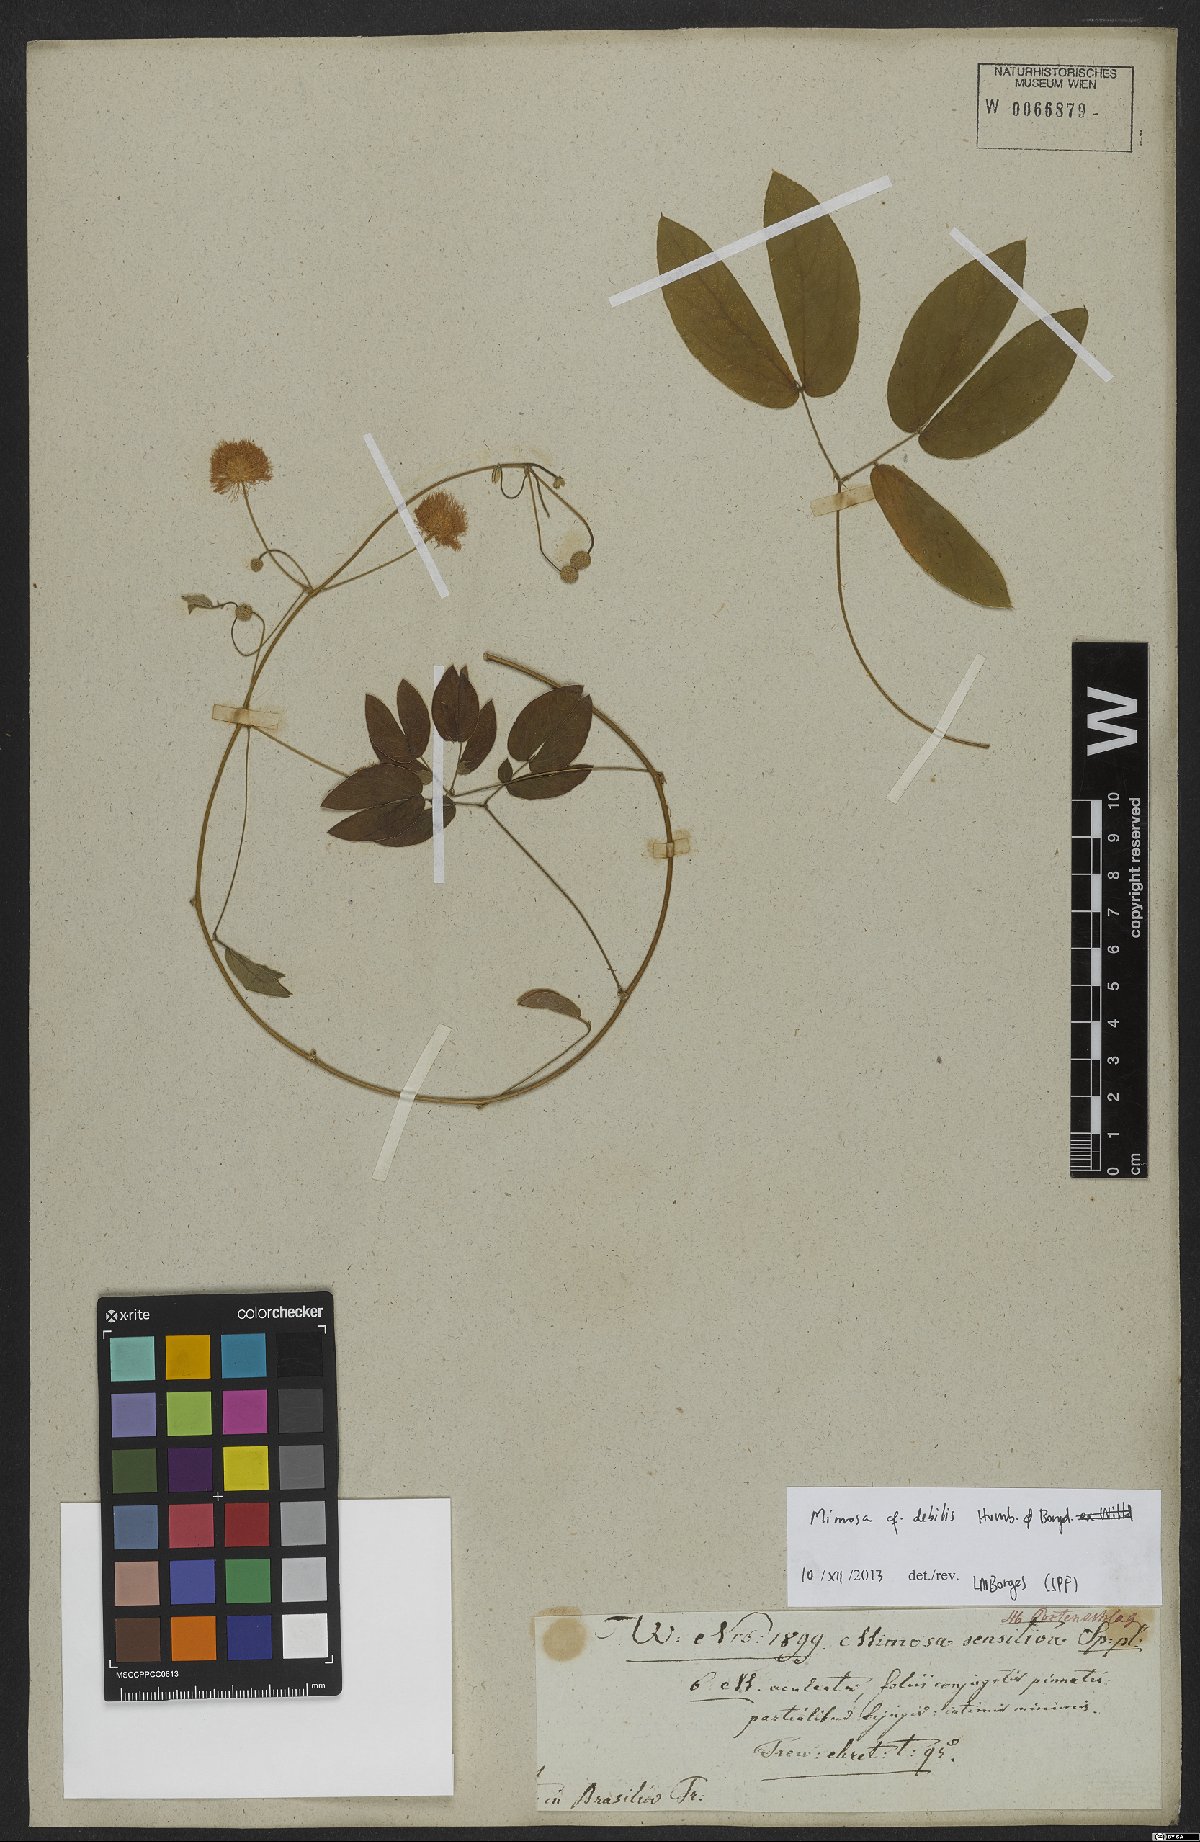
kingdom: Plantae
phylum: Tracheophyta
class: Magnoliopsida
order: Fabales
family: Fabaceae
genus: Mimosa
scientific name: Mimosa debilis
